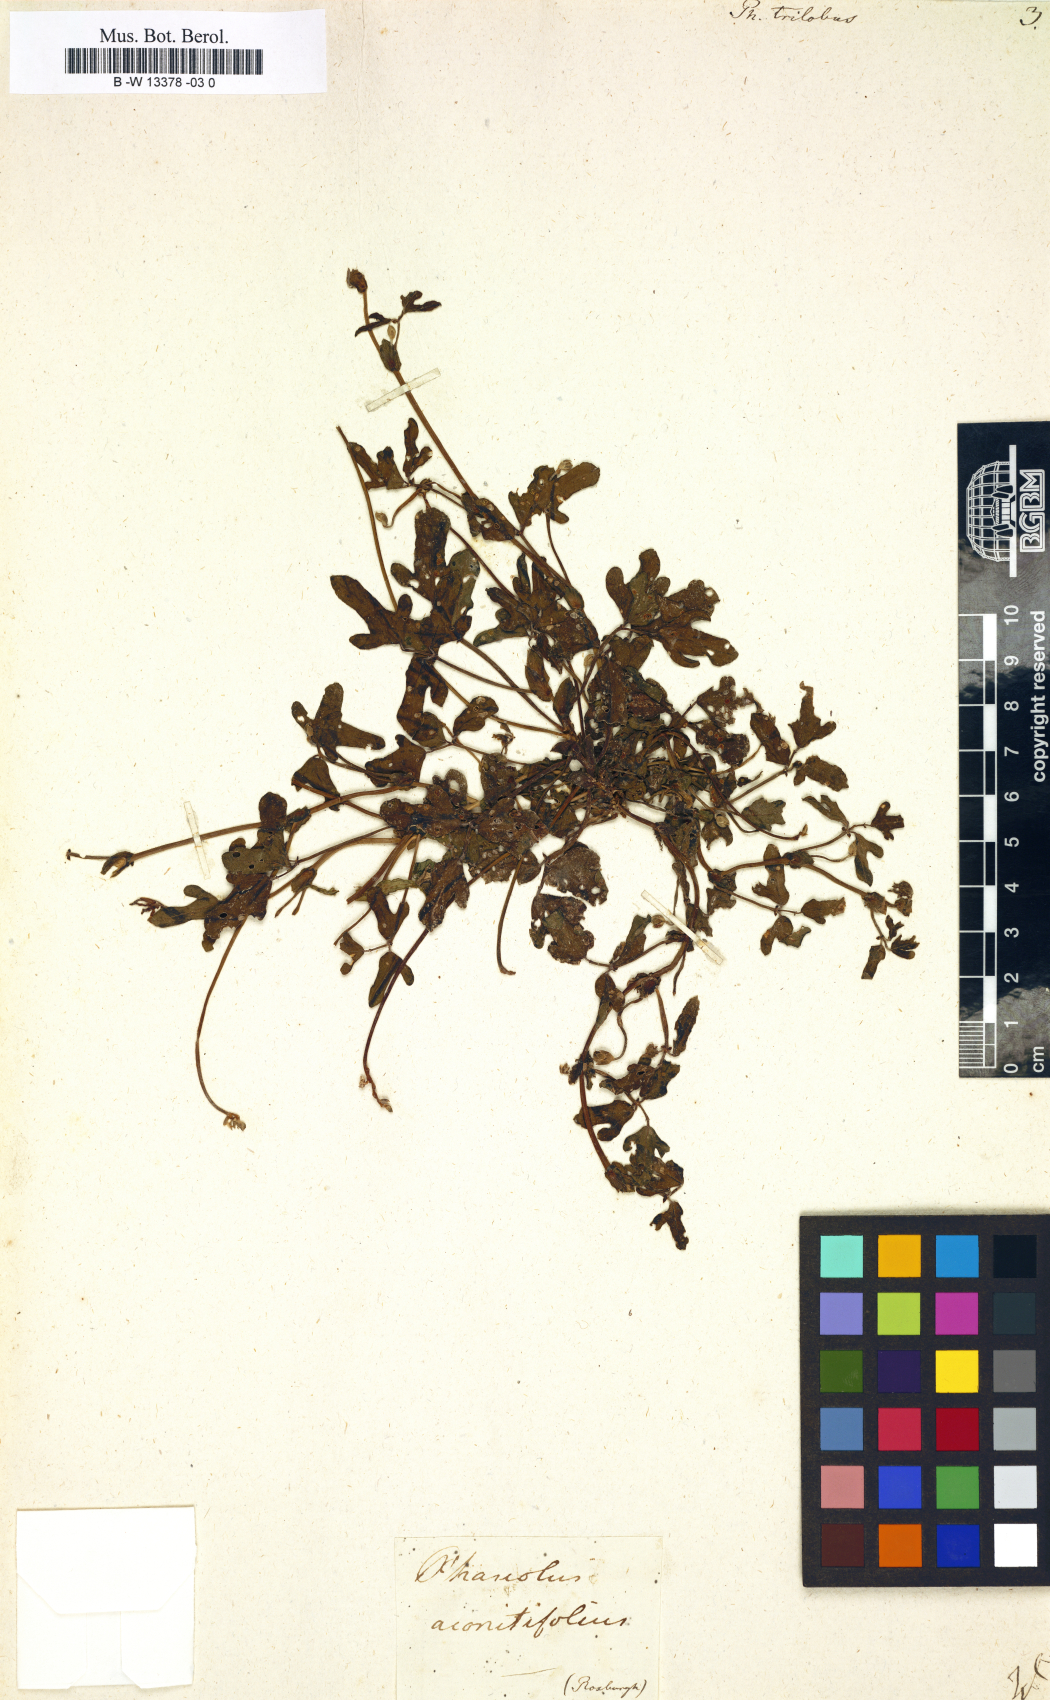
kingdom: Plantae
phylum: Tracheophyta
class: Magnoliopsida
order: Fabales
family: Fabaceae
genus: Pueraria
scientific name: Pueraria montana
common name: Kudzu
